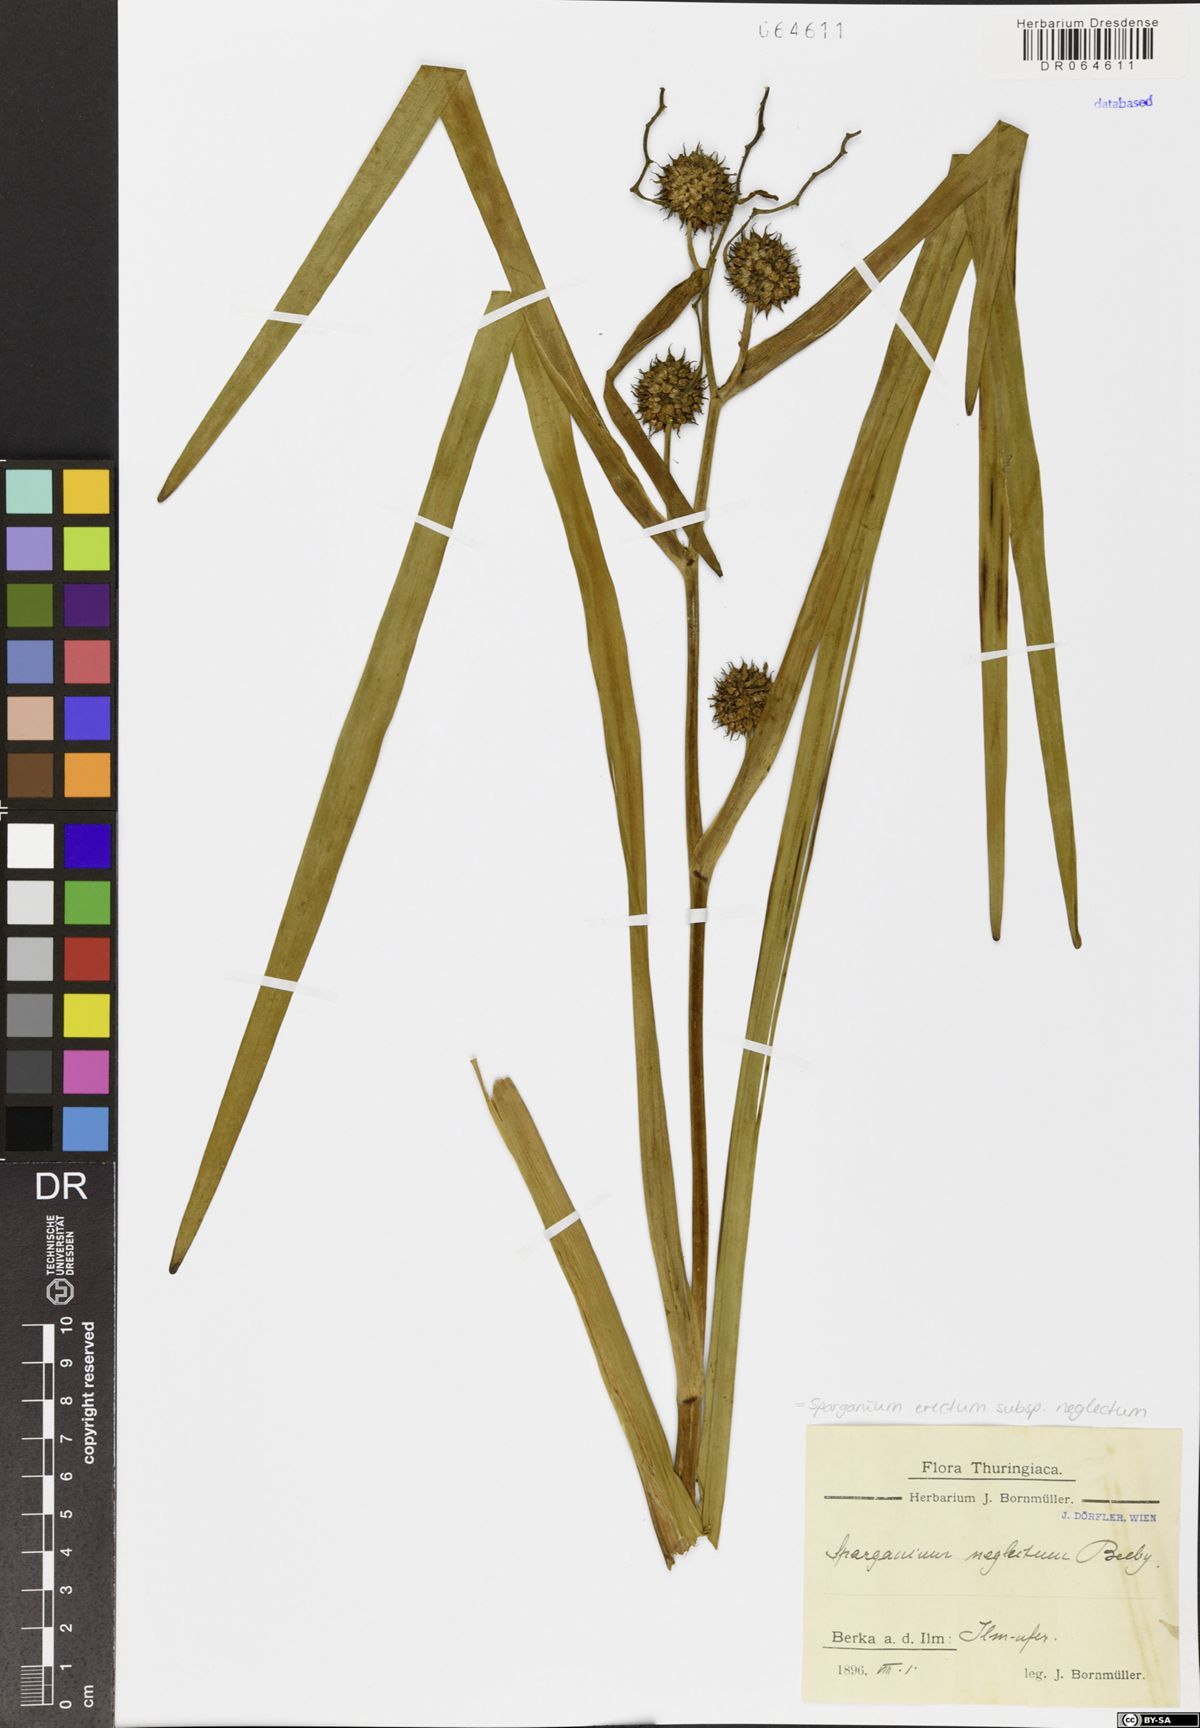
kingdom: Plantae
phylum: Tracheophyta
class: Liliopsida
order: Poales
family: Typhaceae
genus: Sparganium
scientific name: Sparganium erectum
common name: Branched bur-reed
